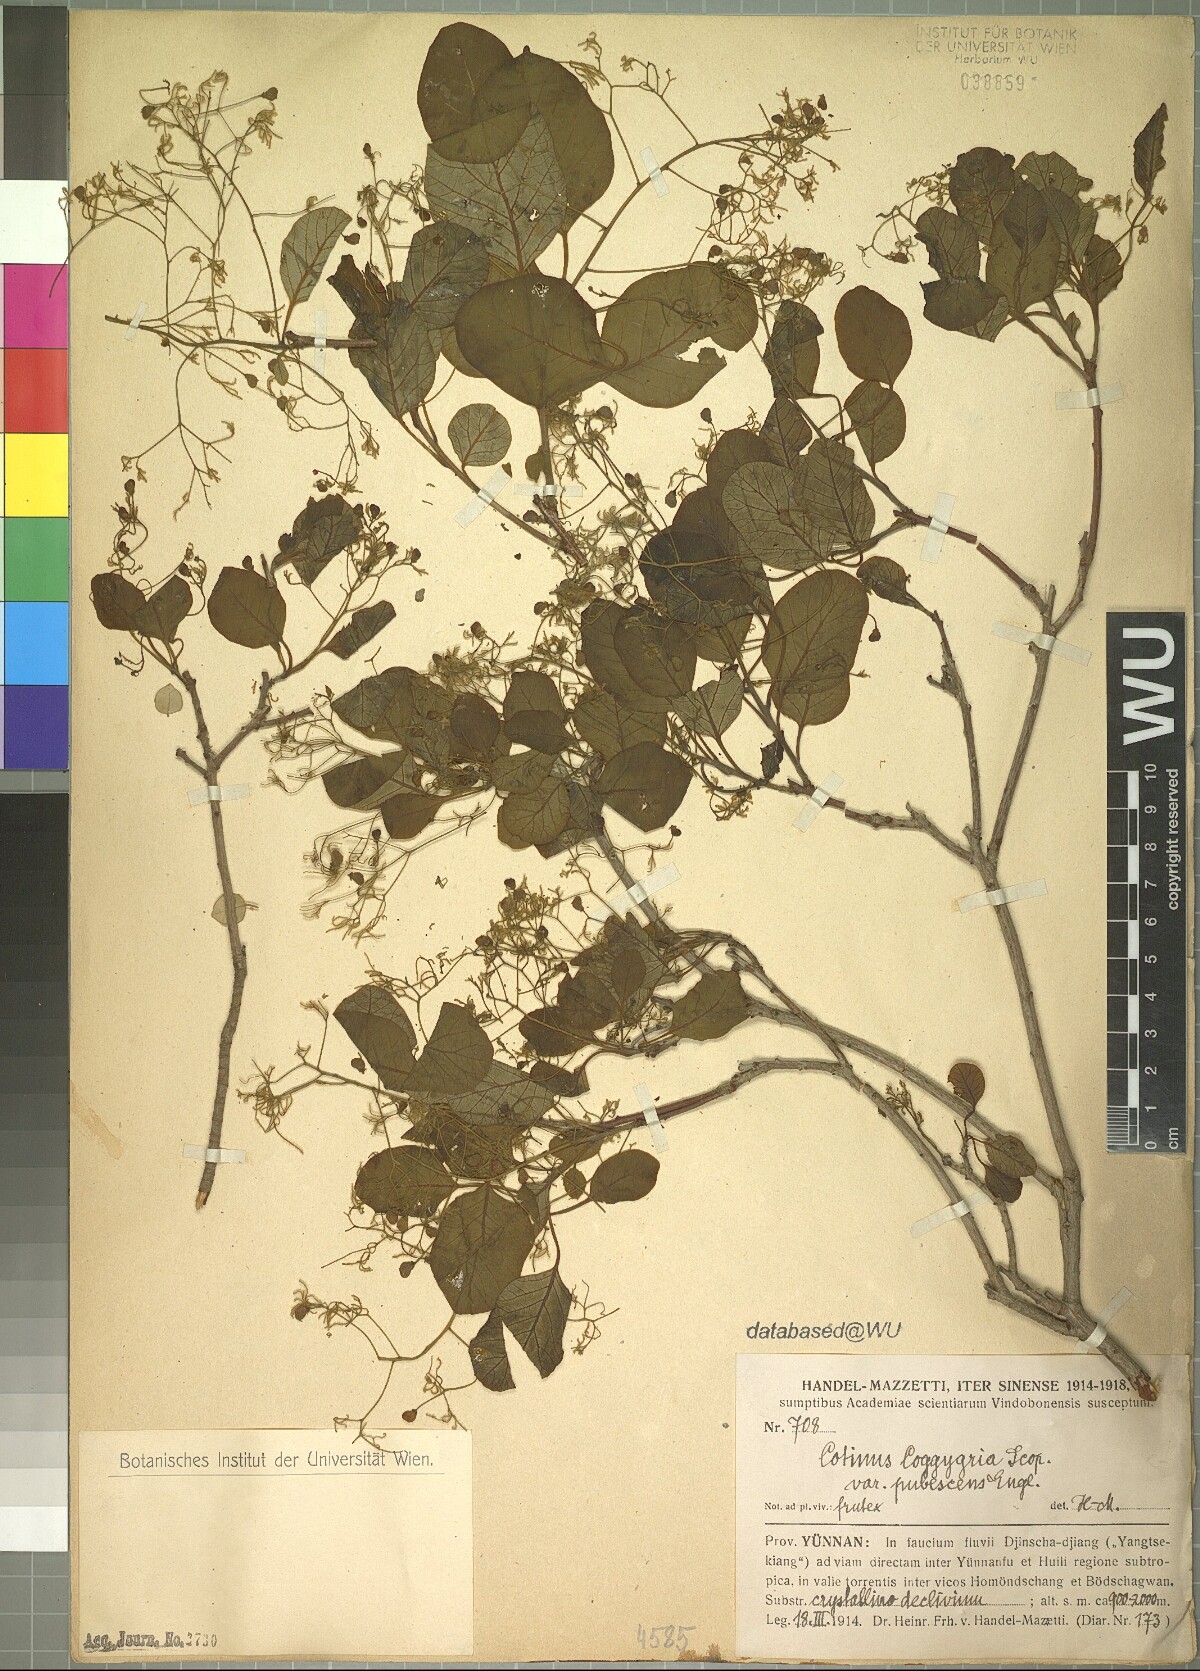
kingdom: Plantae
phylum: Tracheophyta
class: Magnoliopsida
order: Sapindales
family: Anacardiaceae
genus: Cotinus
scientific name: Cotinus coggygria
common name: Smoke-tree
